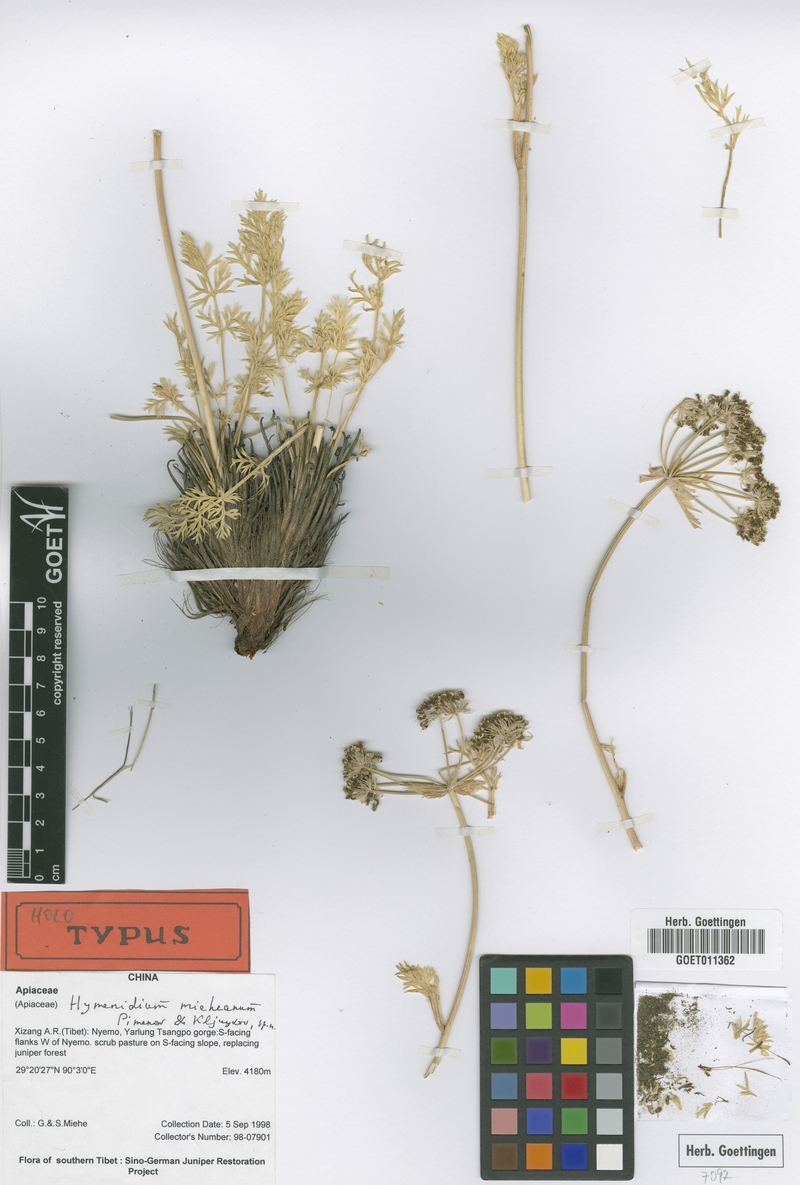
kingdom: Plantae
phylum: Tracheophyta
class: Magnoliopsida
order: Apiales
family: Apiaceae
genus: Hymenidium
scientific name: Hymenidium mieheanum
